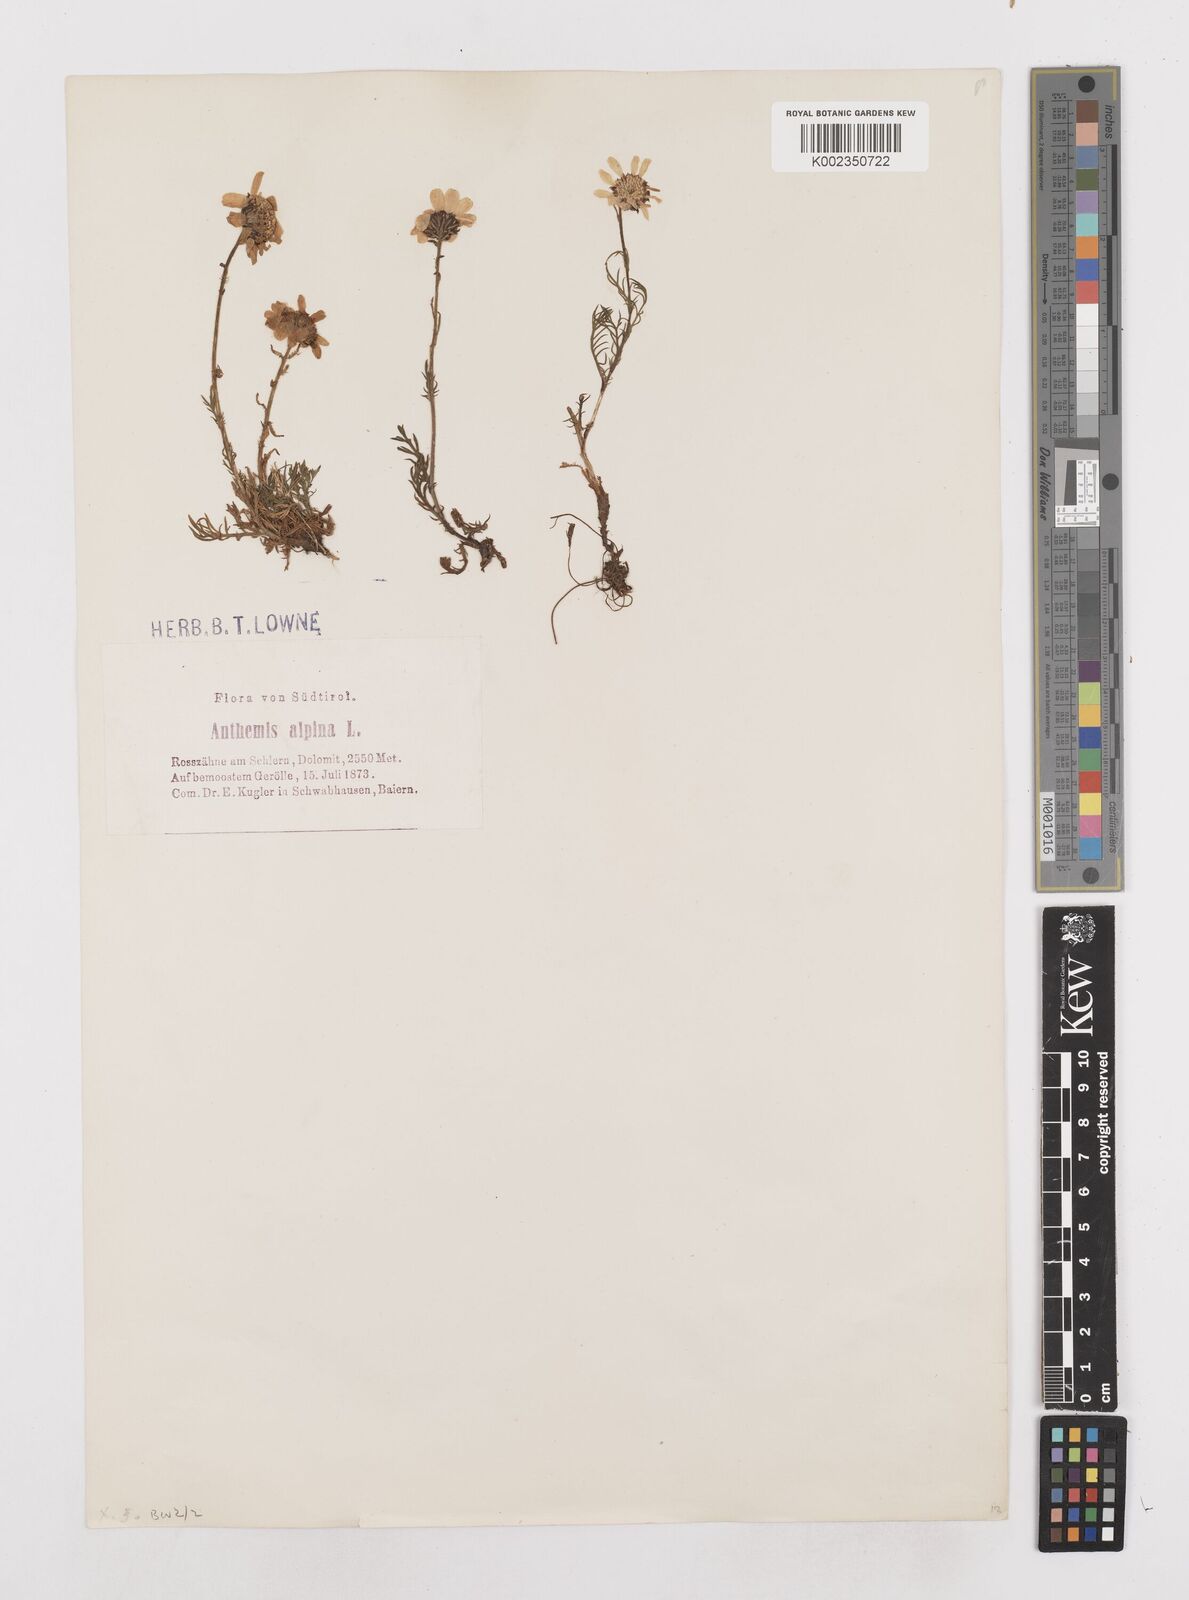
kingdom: Plantae
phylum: Tracheophyta
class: Magnoliopsida
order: Asterales
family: Asteraceae
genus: Achillea
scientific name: Achillea impatiens
